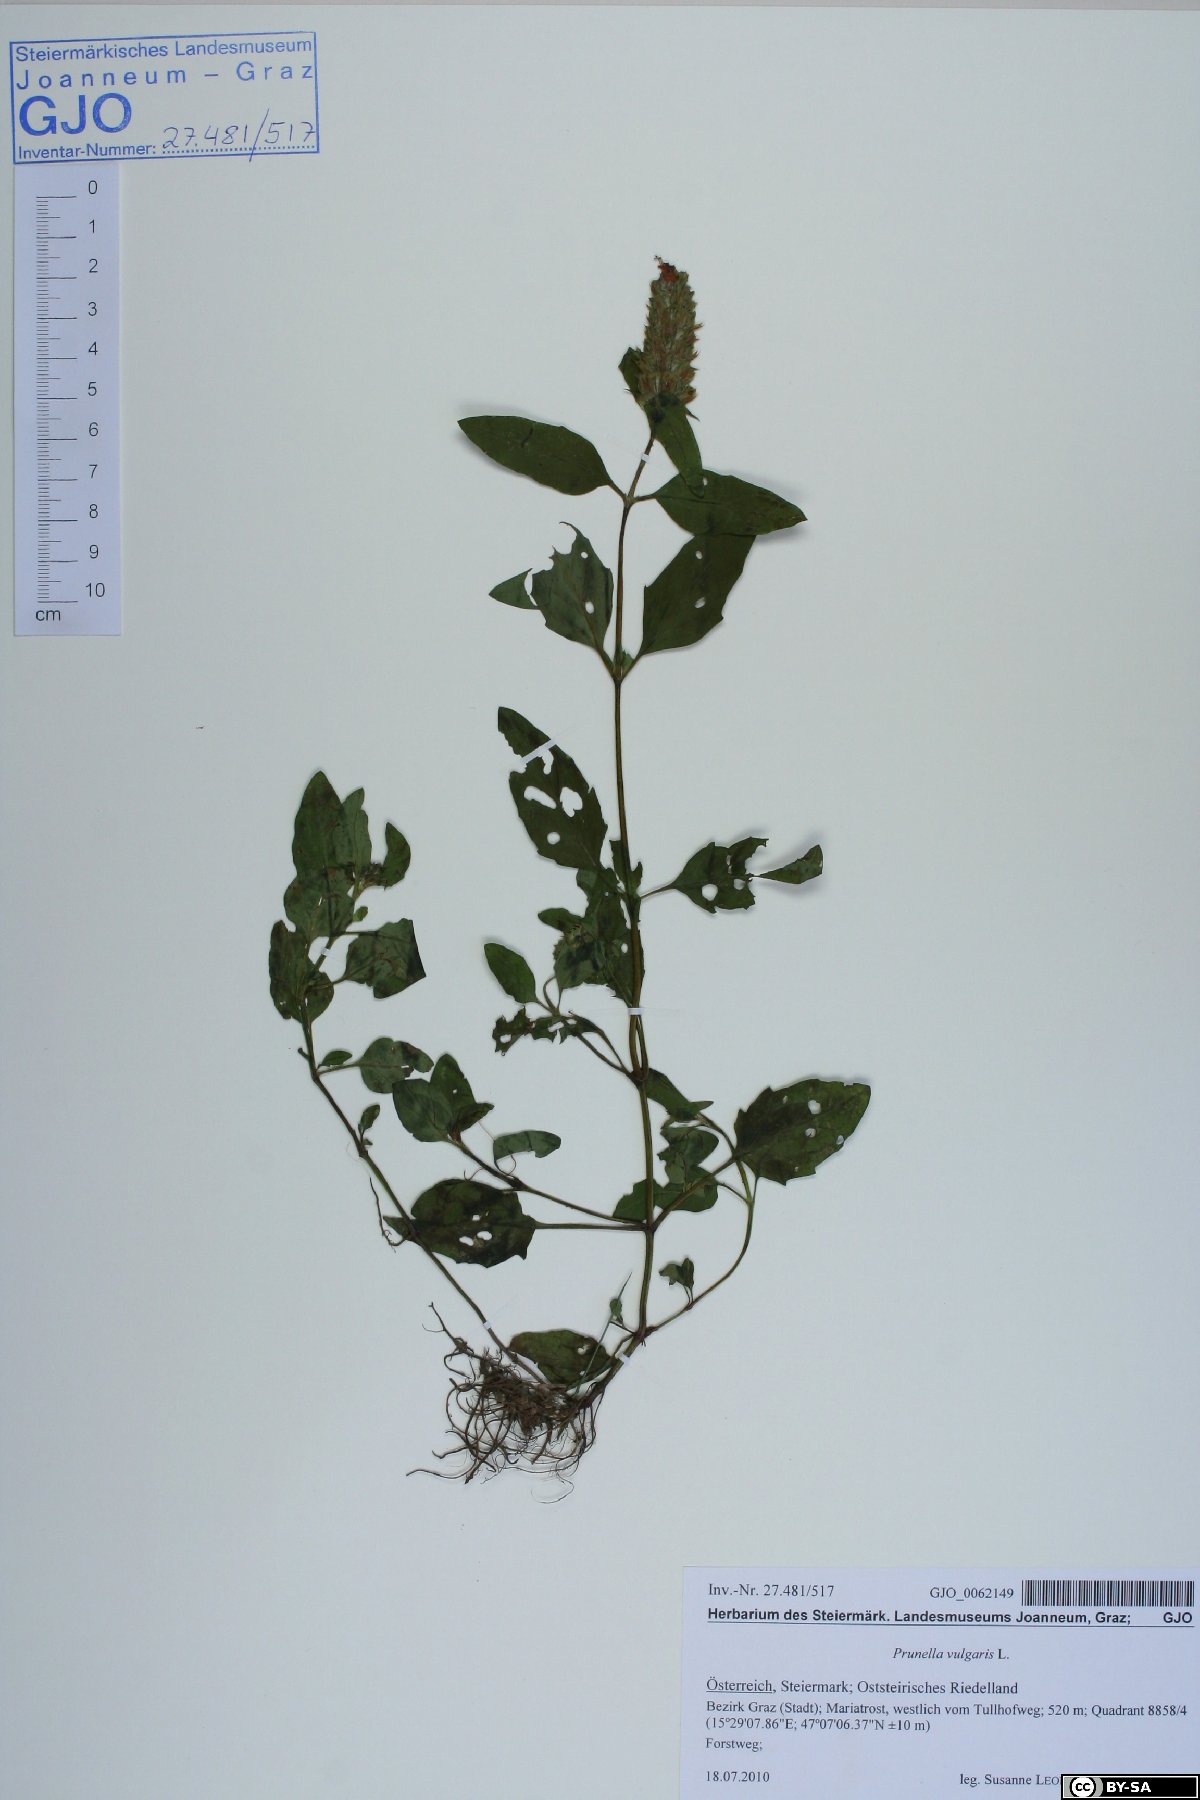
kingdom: Plantae
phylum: Tracheophyta
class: Magnoliopsida
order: Lamiales
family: Lamiaceae
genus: Prunella
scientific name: Prunella vulgaris
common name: Heal-all
